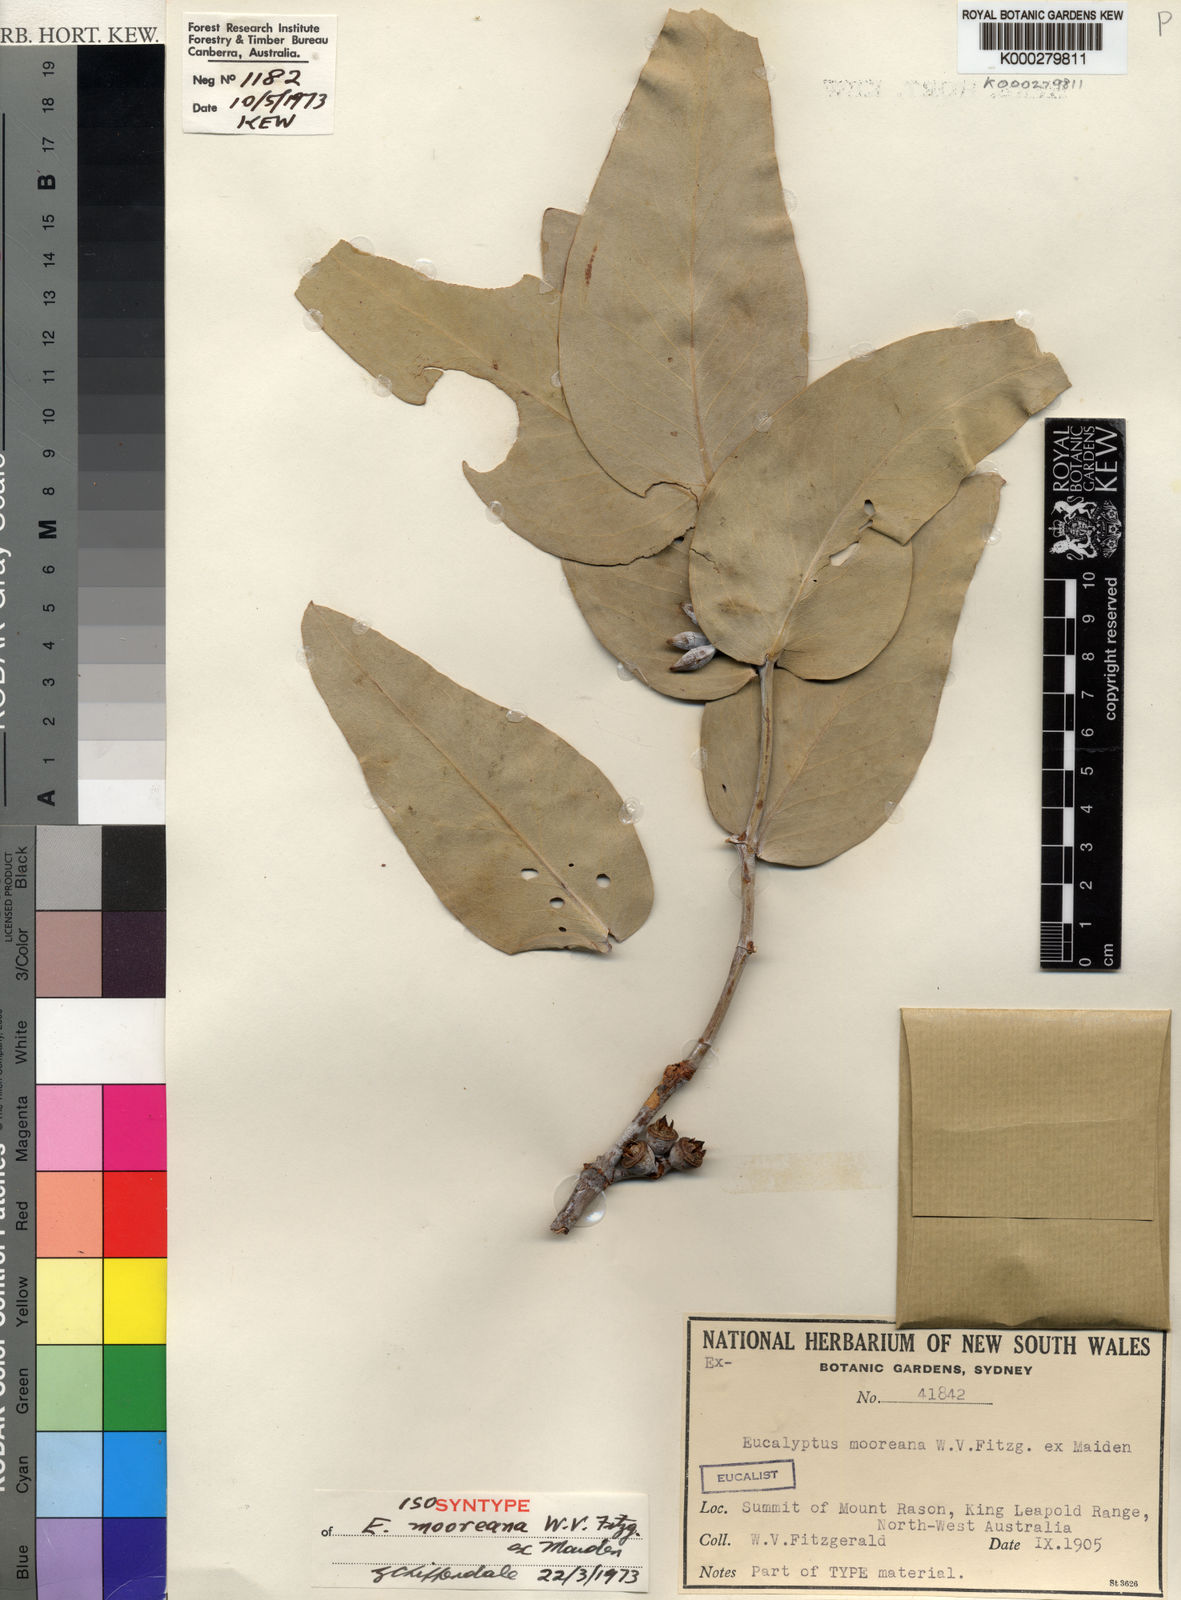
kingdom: Plantae
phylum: Tracheophyta
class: Magnoliopsida
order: Myrtales
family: Myrtaceae
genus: Eucalyptus
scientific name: Eucalyptus mooreana
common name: Moores gum
